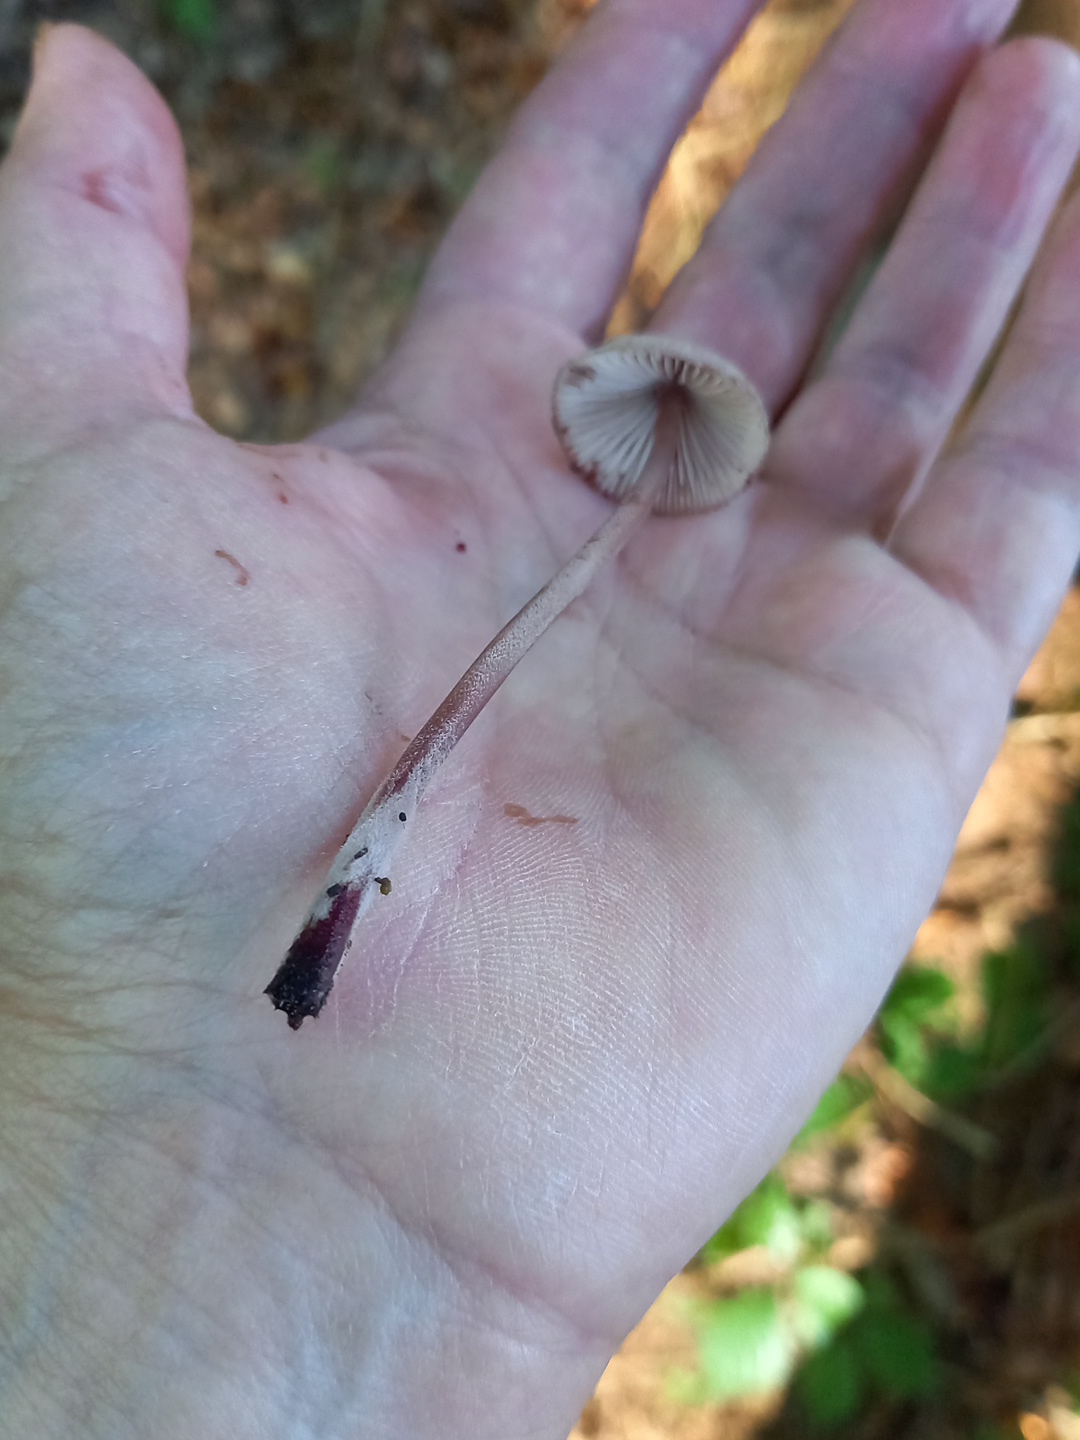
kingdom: Fungi
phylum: Basidiomycota
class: Agaricomycetes
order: Agaricales
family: Mycenaceae
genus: Mycena
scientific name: Mycena haematopus
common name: blødende huesvamp
